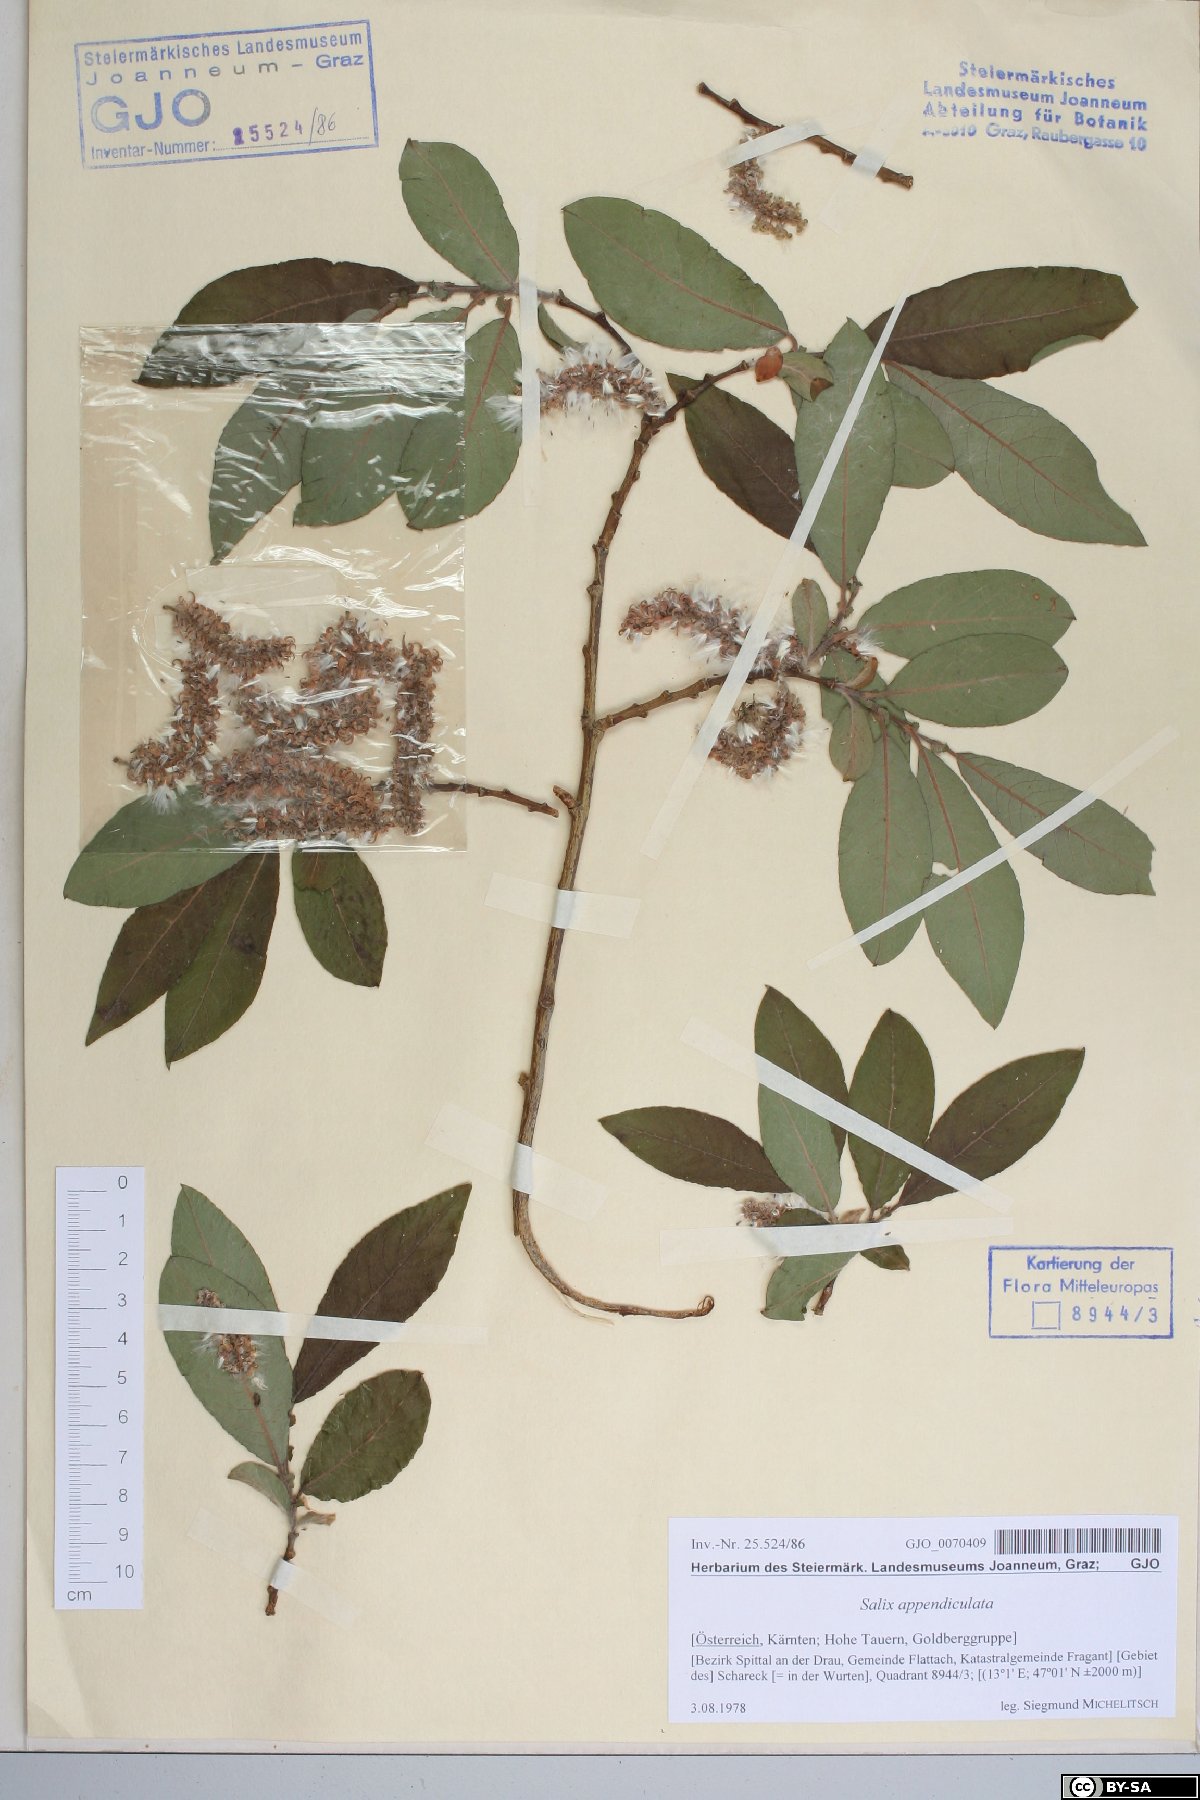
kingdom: Plantae
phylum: Tracheophyta
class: Magnoliopsida
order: Malpighiales
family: Salicaceae
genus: Salix
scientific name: Salix appendiculata
